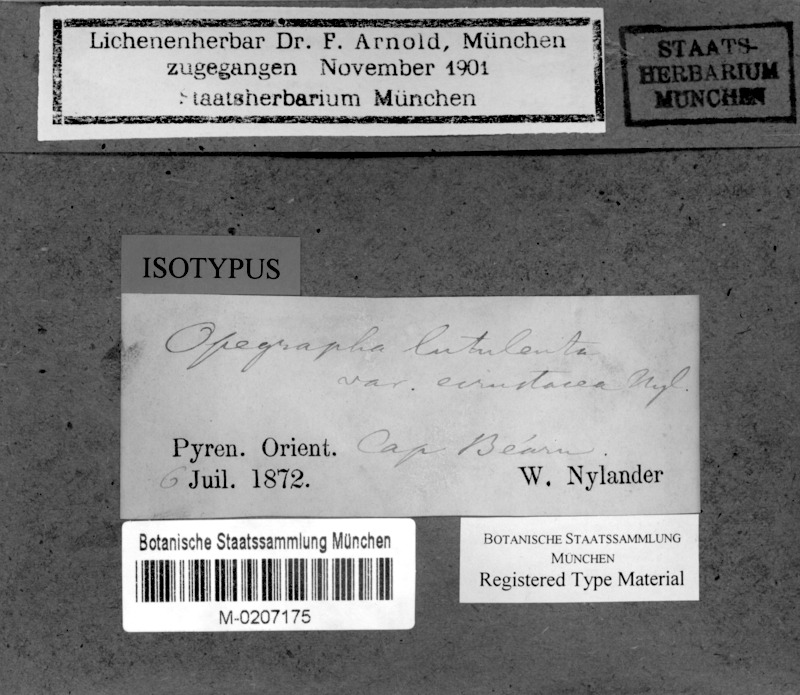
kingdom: Fungi
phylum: Ascomycota
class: Arthoniomycetes
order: Arthoniales
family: Lecanographaceae
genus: Alyxoria
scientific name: Alyxoria lutulenta
